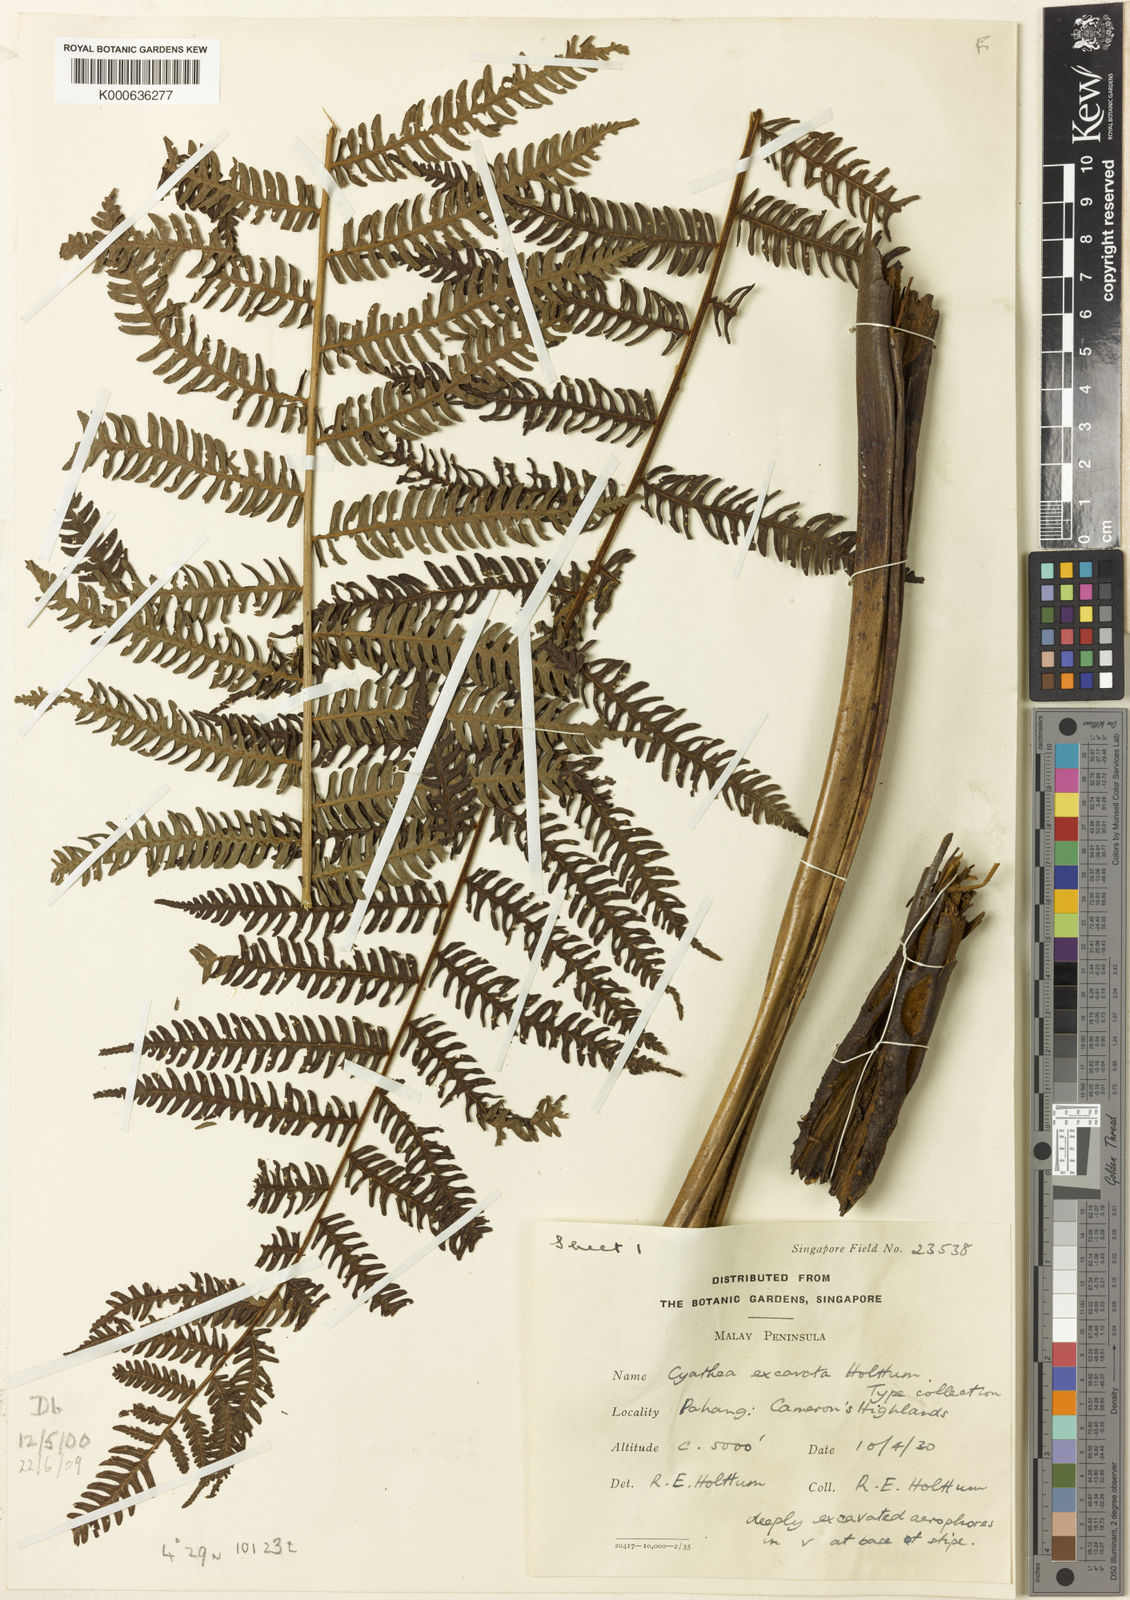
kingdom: Plantae
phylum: Tracheophyta
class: Polypodiopsida
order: Cyatheales
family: Cyatheaceae
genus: Alsophila
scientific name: Alsophila excavata
